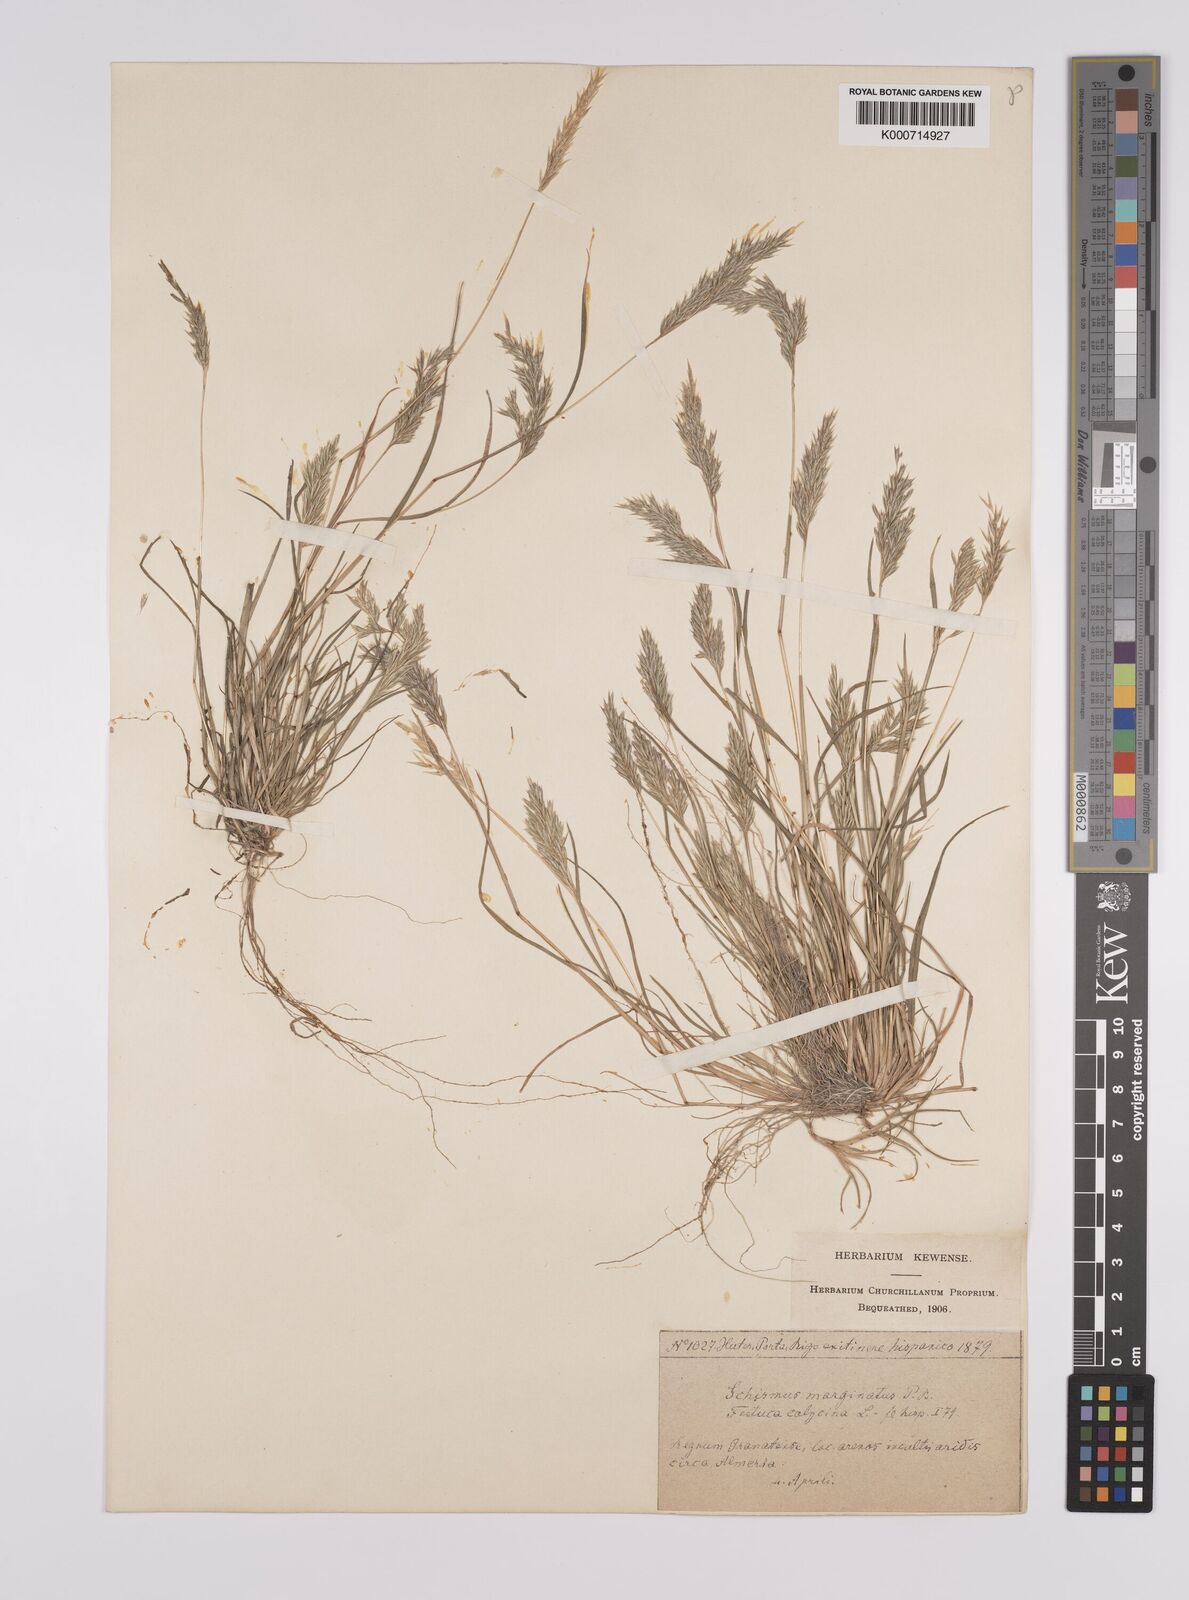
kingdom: Plantae
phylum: Tracheophyta
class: Liliopsida
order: Poales
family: Poaceae
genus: Schismus
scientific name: Schismus barbatus
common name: Kelch-grass
